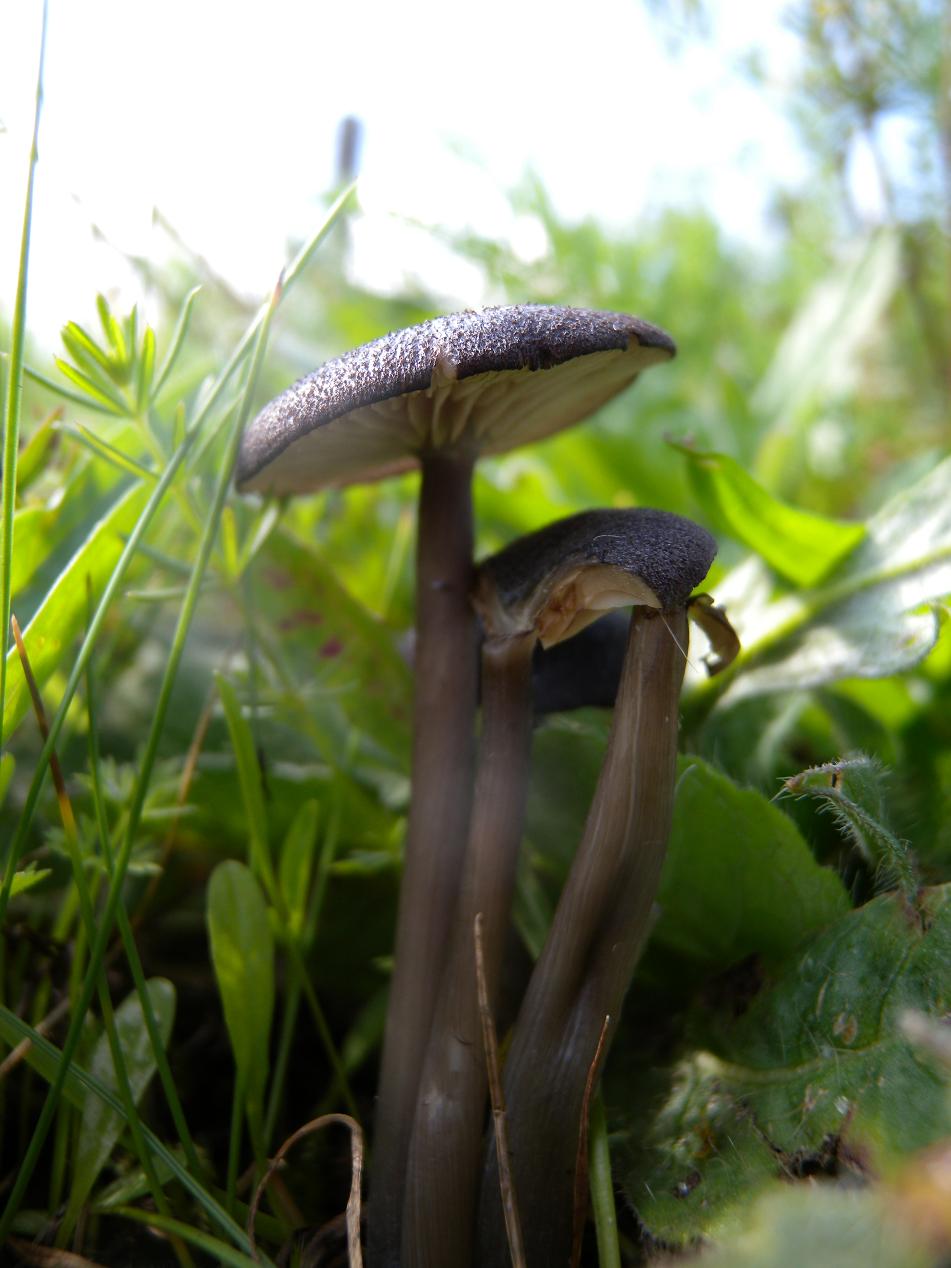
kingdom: Fungi
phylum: Basidiomycota
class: Agaricomycetes
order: Agaricales
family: Entolomataceae
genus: Entoloma
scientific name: Entoloma porphyrogriseum
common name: porfyrgrå rødblad
